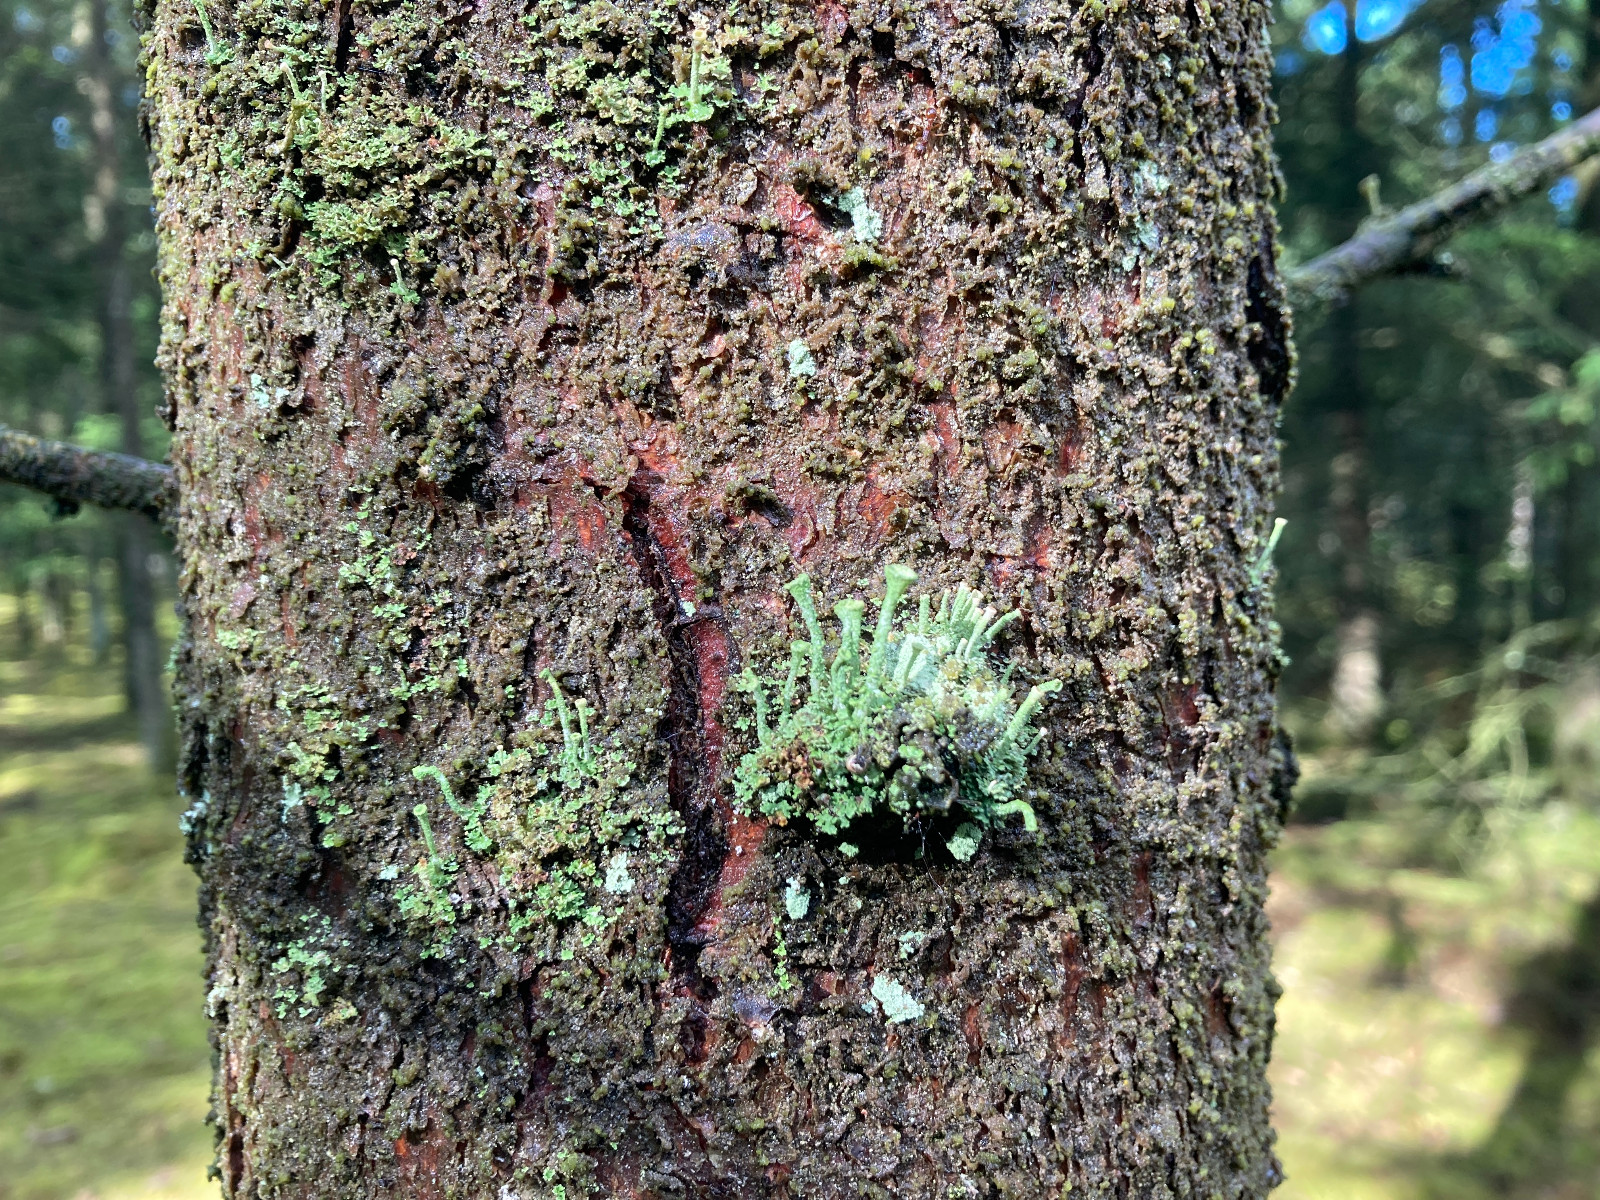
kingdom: Fungi
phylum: Ascomycota
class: Lecanoromycetes
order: Lecanorales
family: Cladoniaceae
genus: Cladonia
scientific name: Cladonia
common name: brungrøn bægerlav
